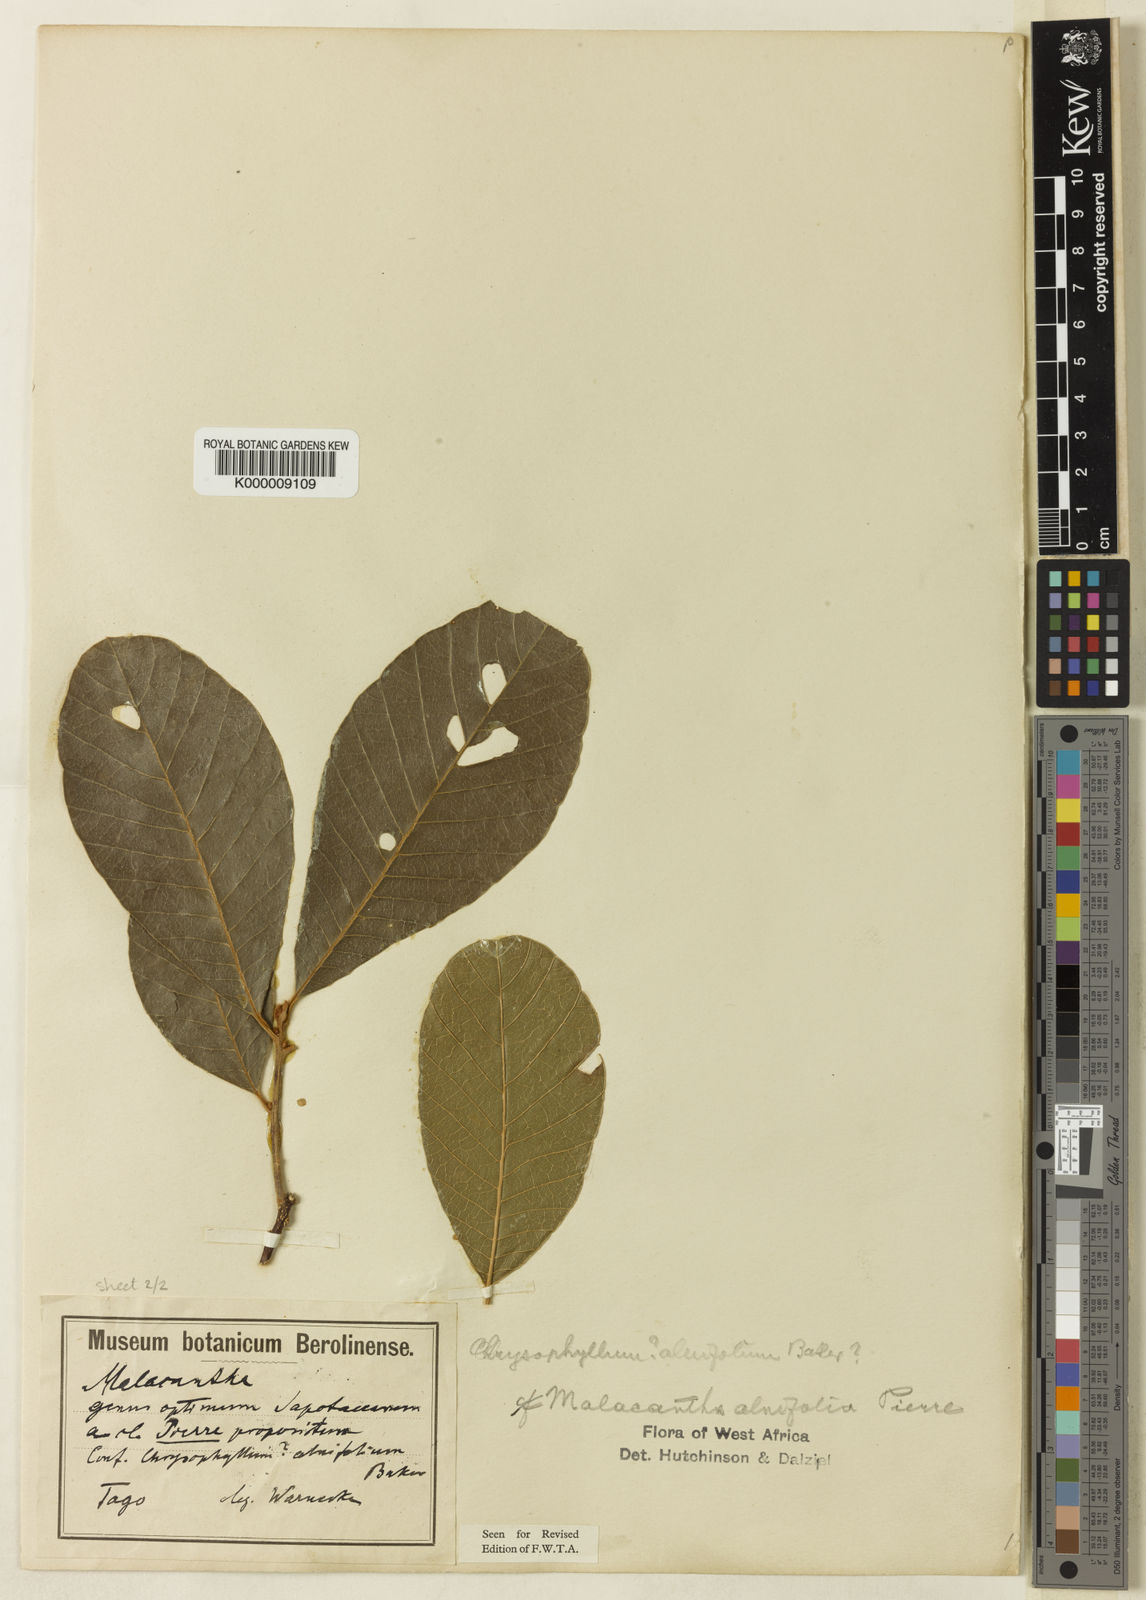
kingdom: Plantae
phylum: Tracheophyta
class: Magnoliopsida
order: Ericales
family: Sapotaceae
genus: Malacantha
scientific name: Malacantha alnifolia
